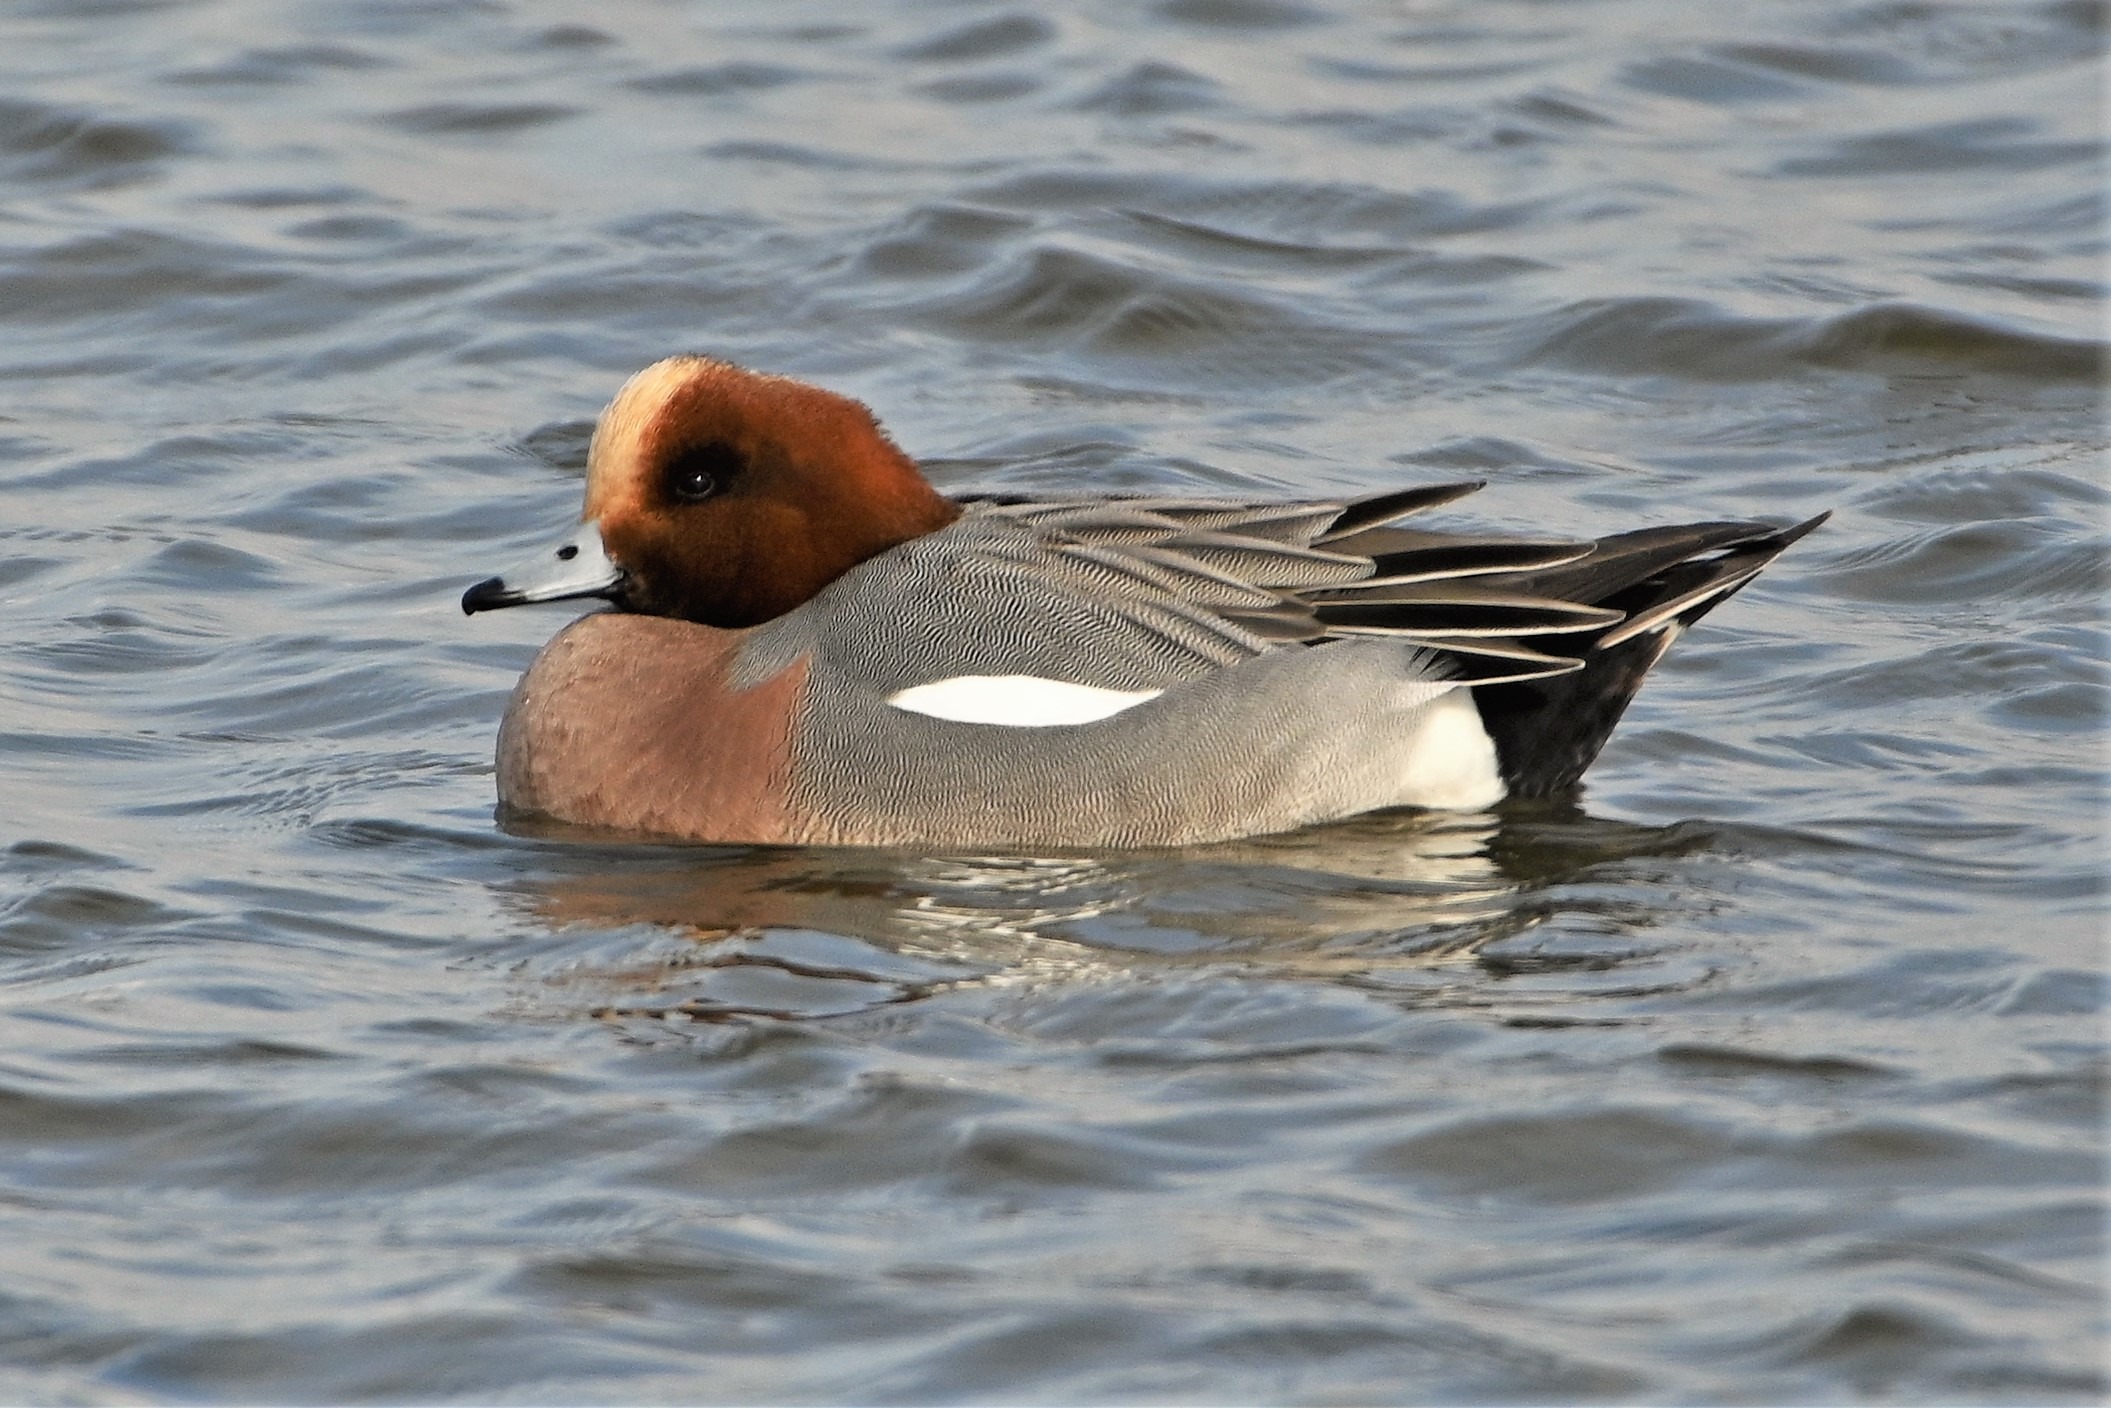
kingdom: Animalia
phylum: Chordata
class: Aves
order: Anseriformes
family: Anatidae
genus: Mareca
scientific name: Mareca penelope
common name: Pibeand
